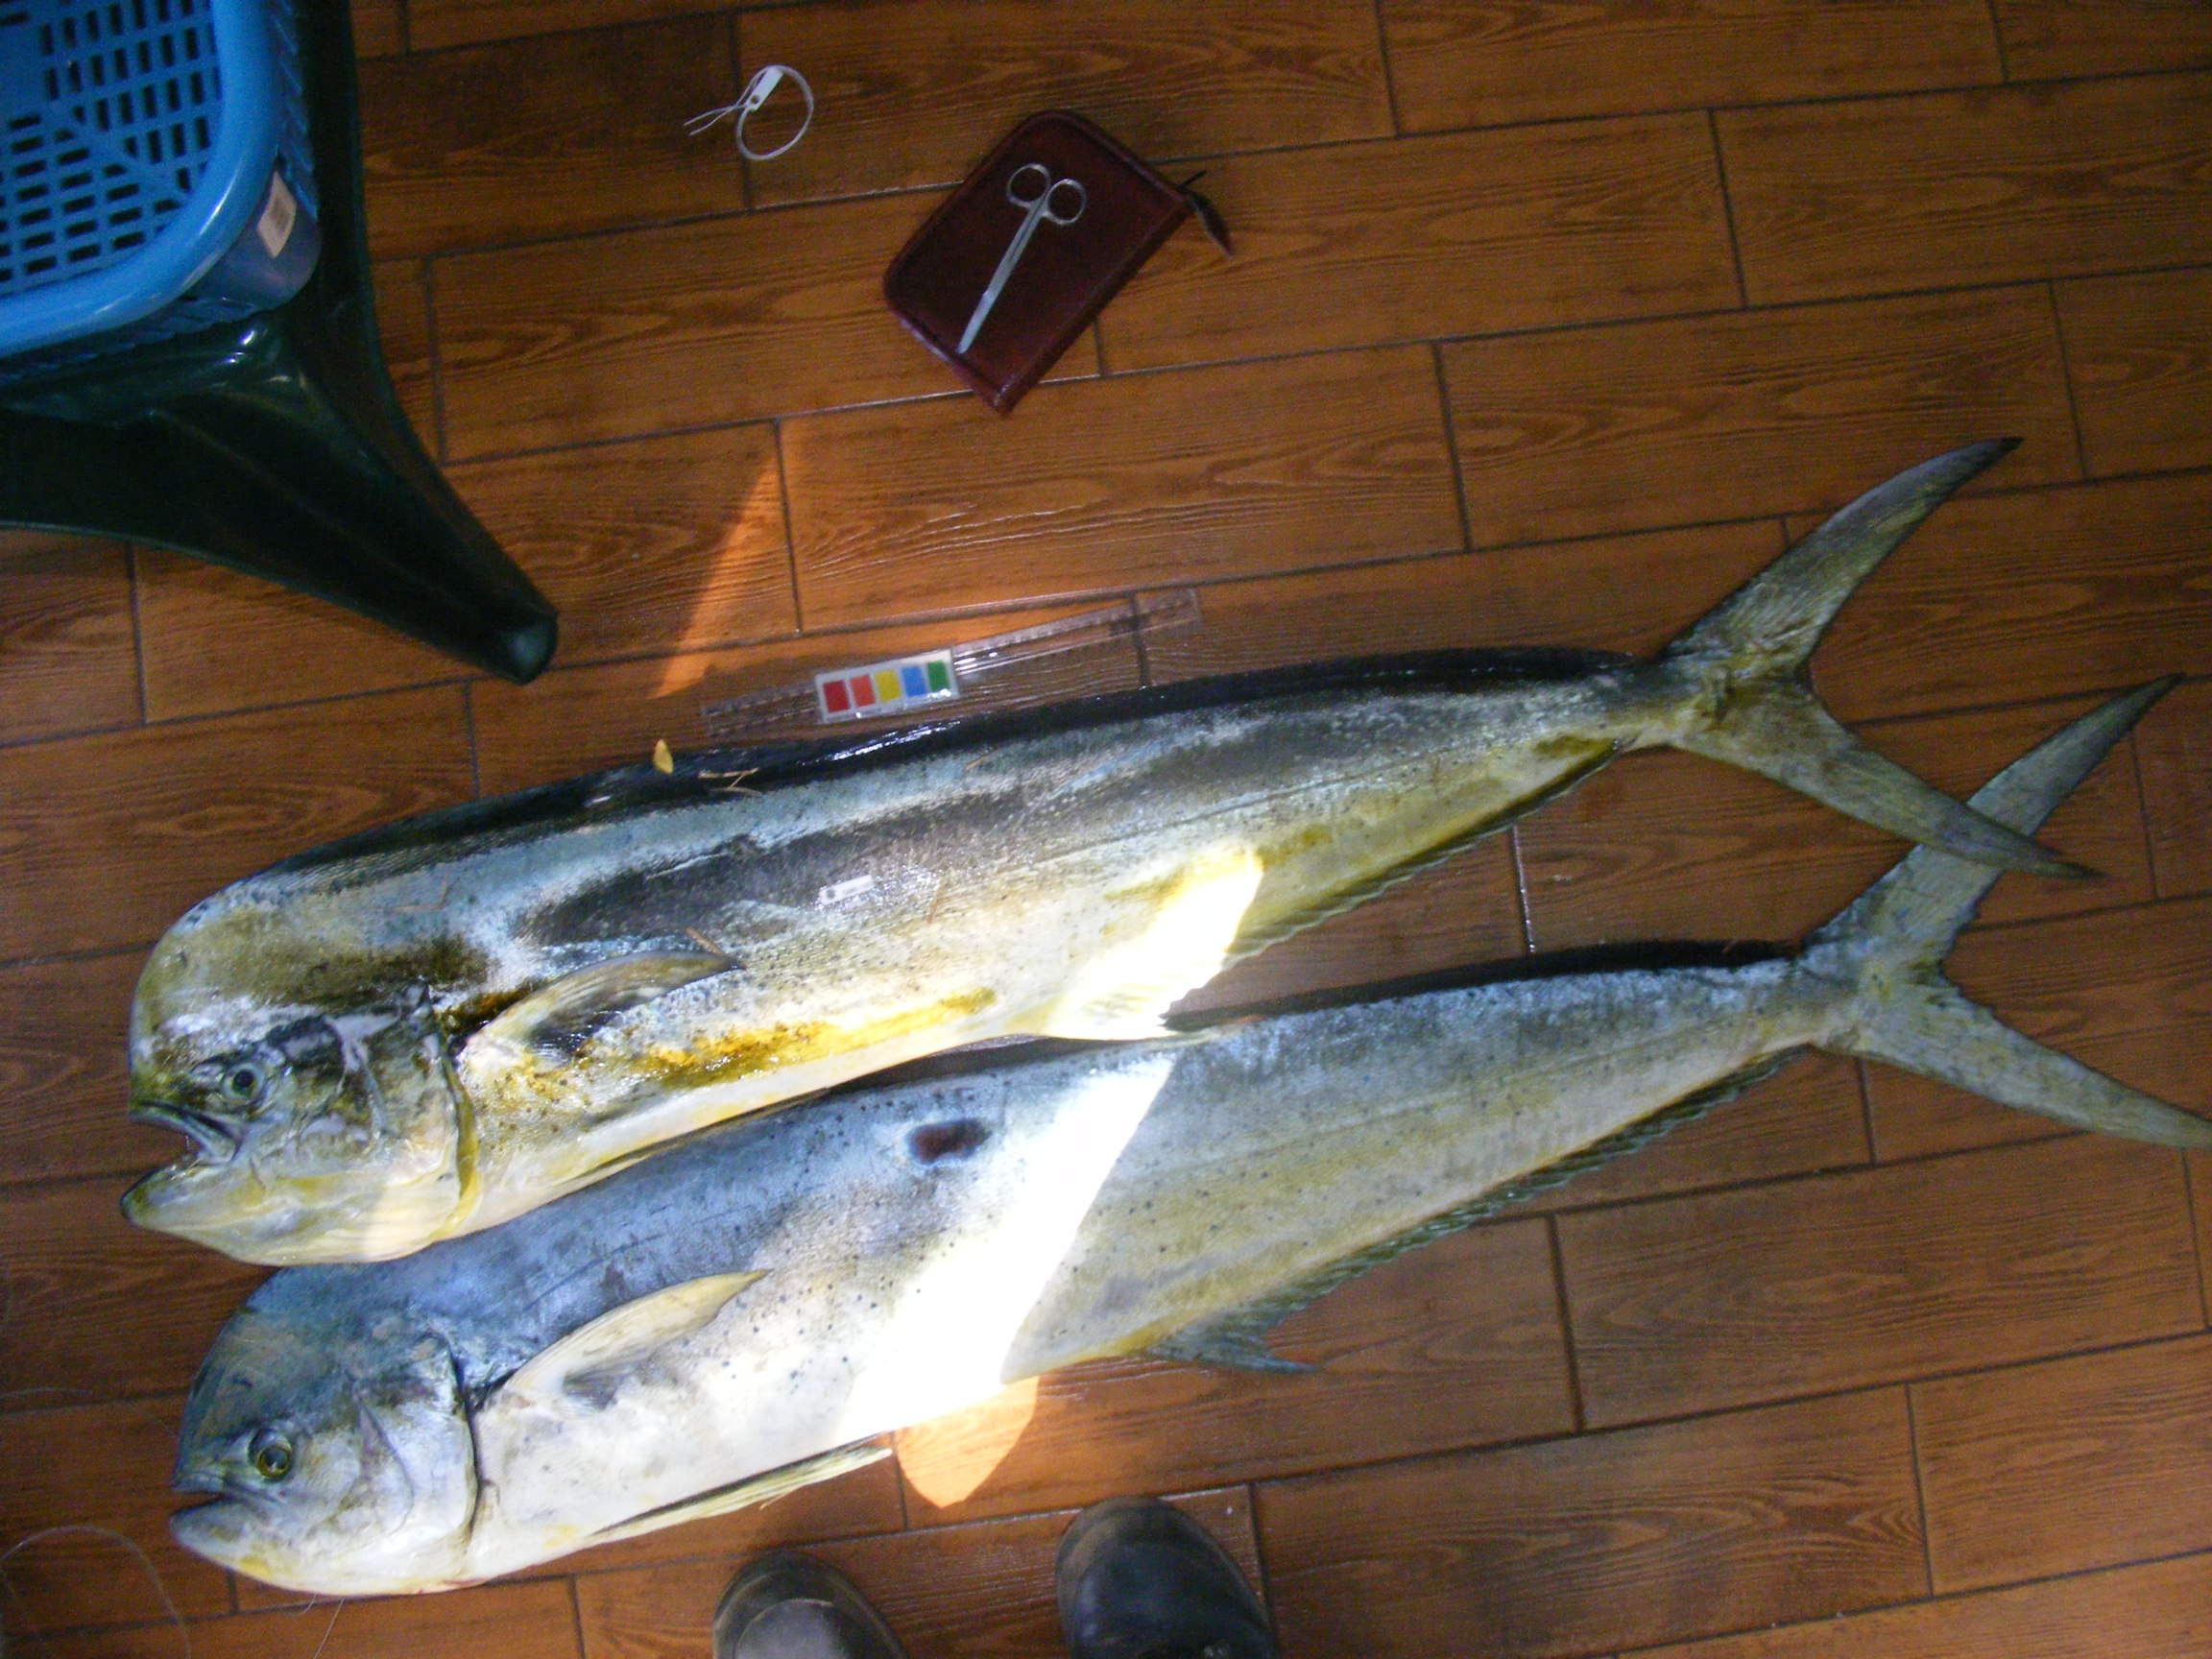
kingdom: Animalia
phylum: Chordata
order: Perciformes
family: Coryphaenidae
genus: Coryphaena
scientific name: Coryphaena hippurus
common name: Dolphin
